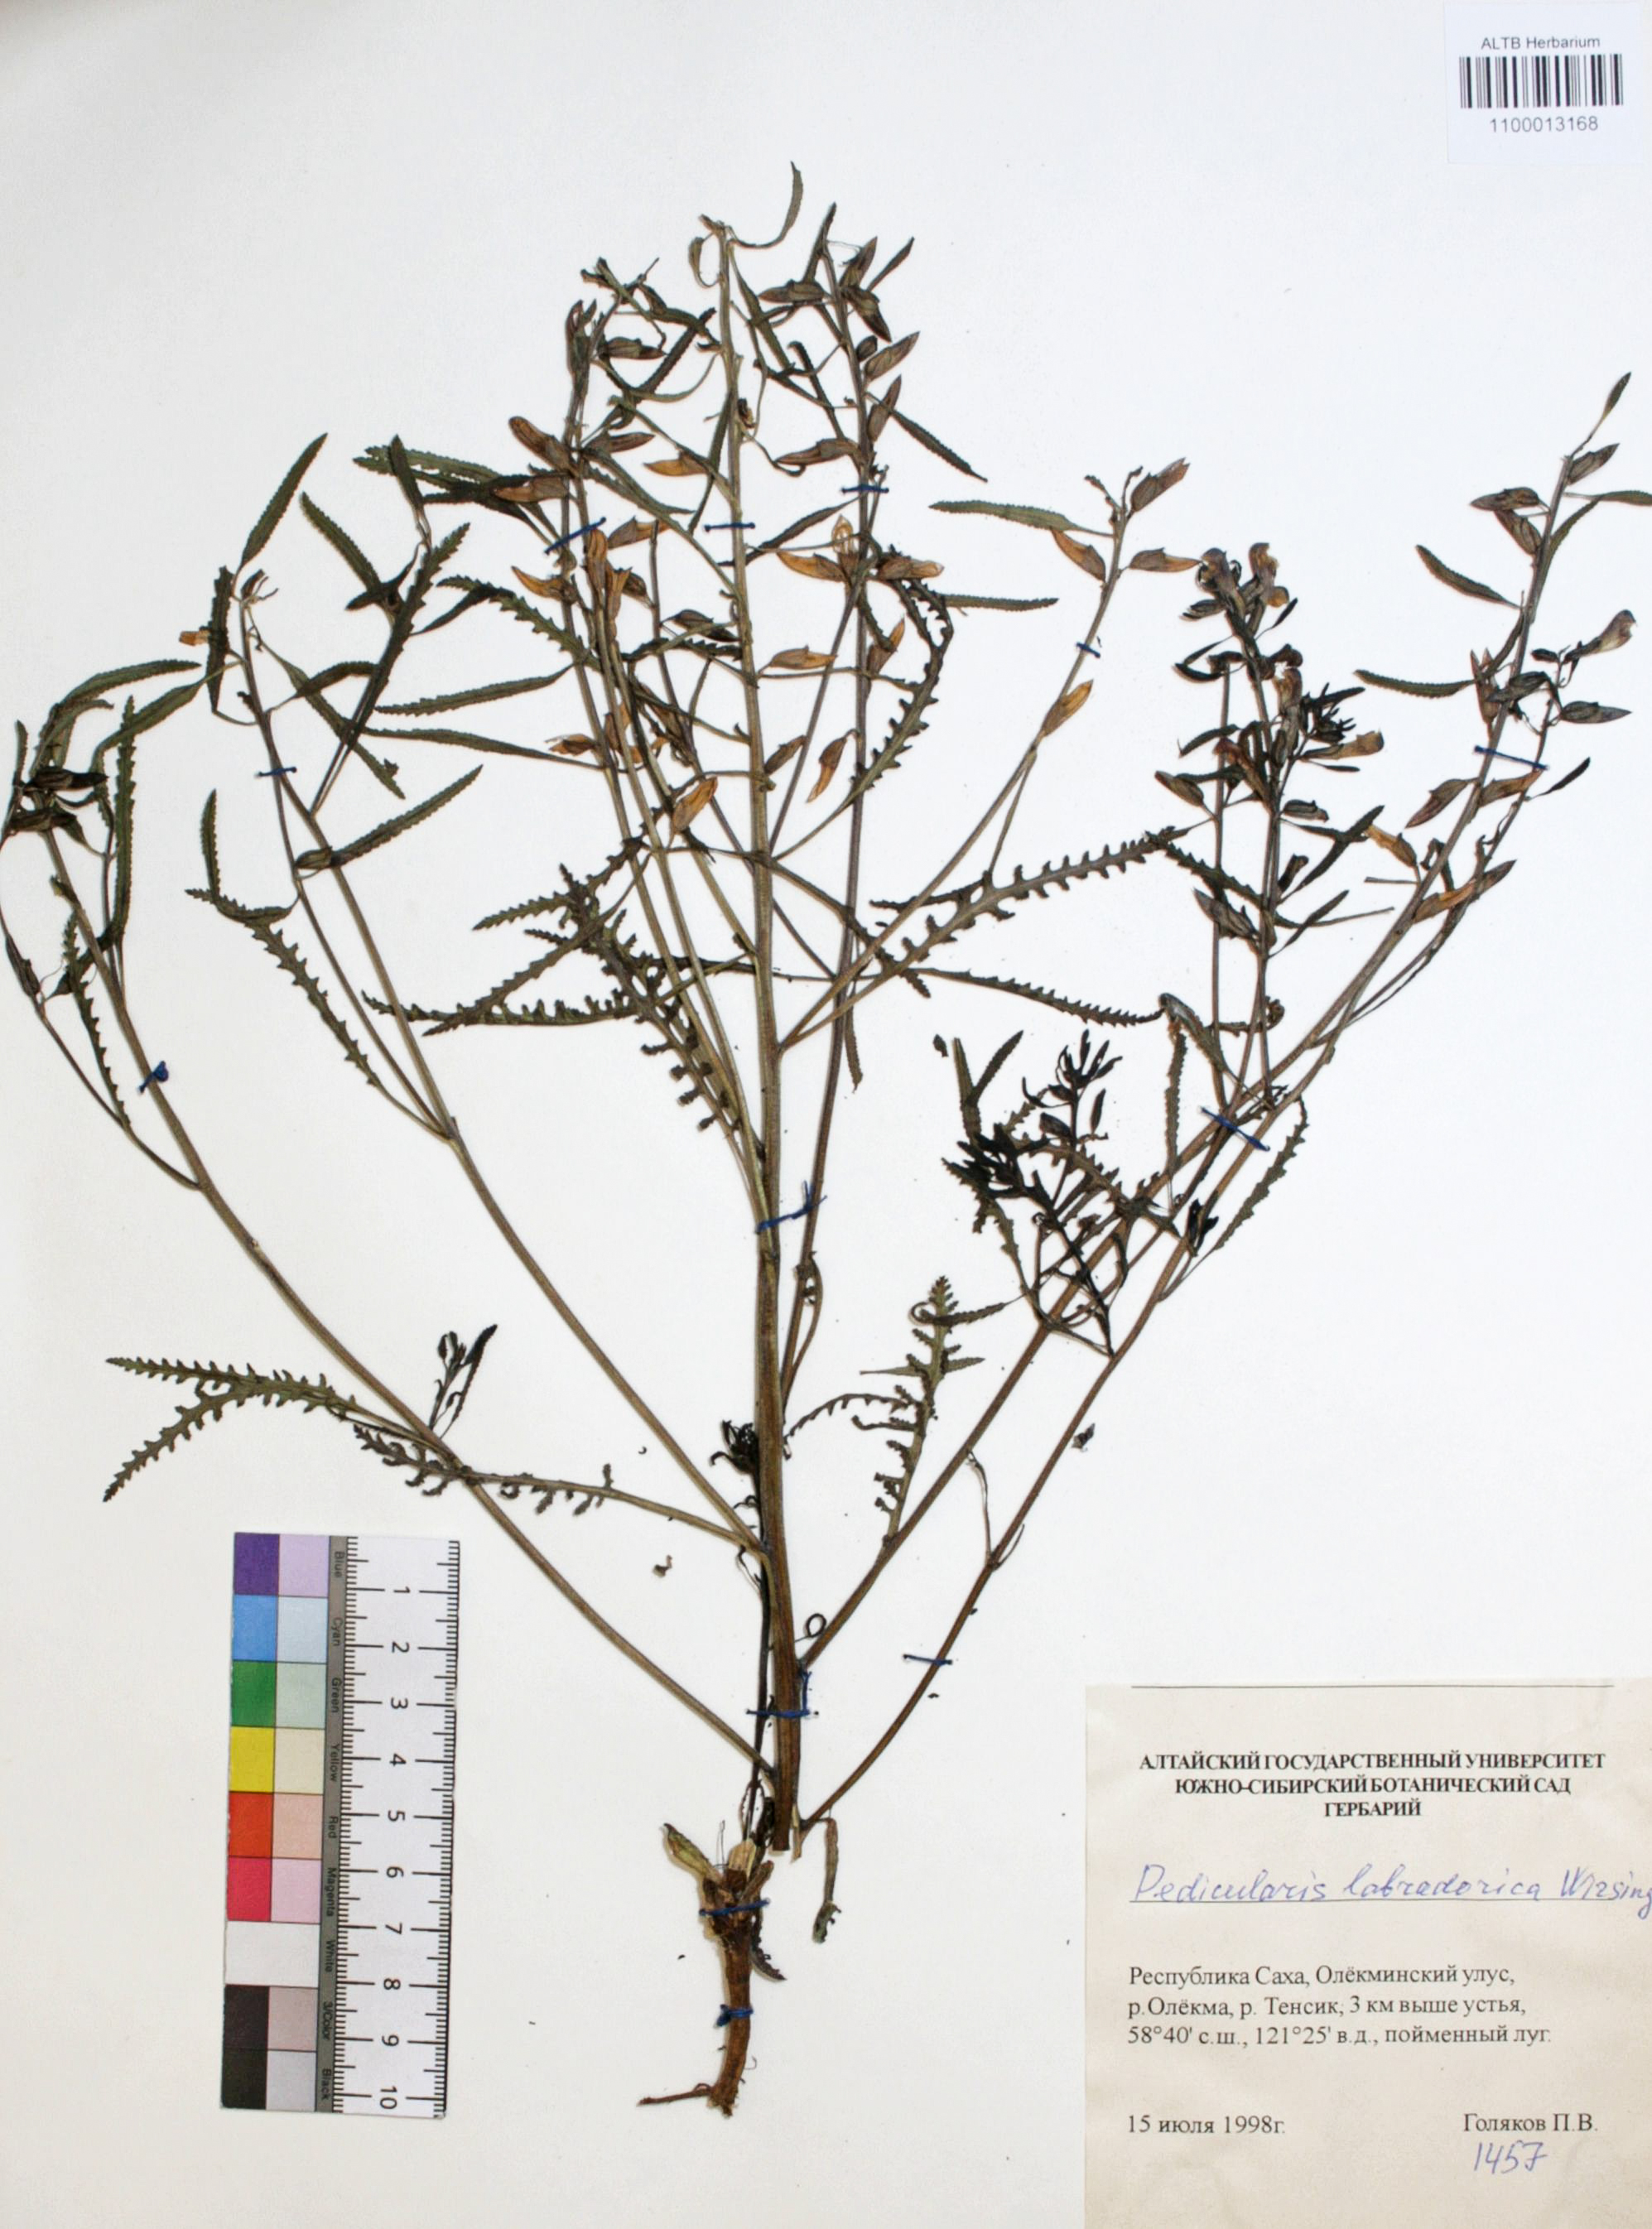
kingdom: Plantae
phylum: Tracheophyta
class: Magnoliopsida
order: Lamiales
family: Orobanchaceae
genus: Pedicularis
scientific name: Pedicularis labradorica
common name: Labrador lousewort
